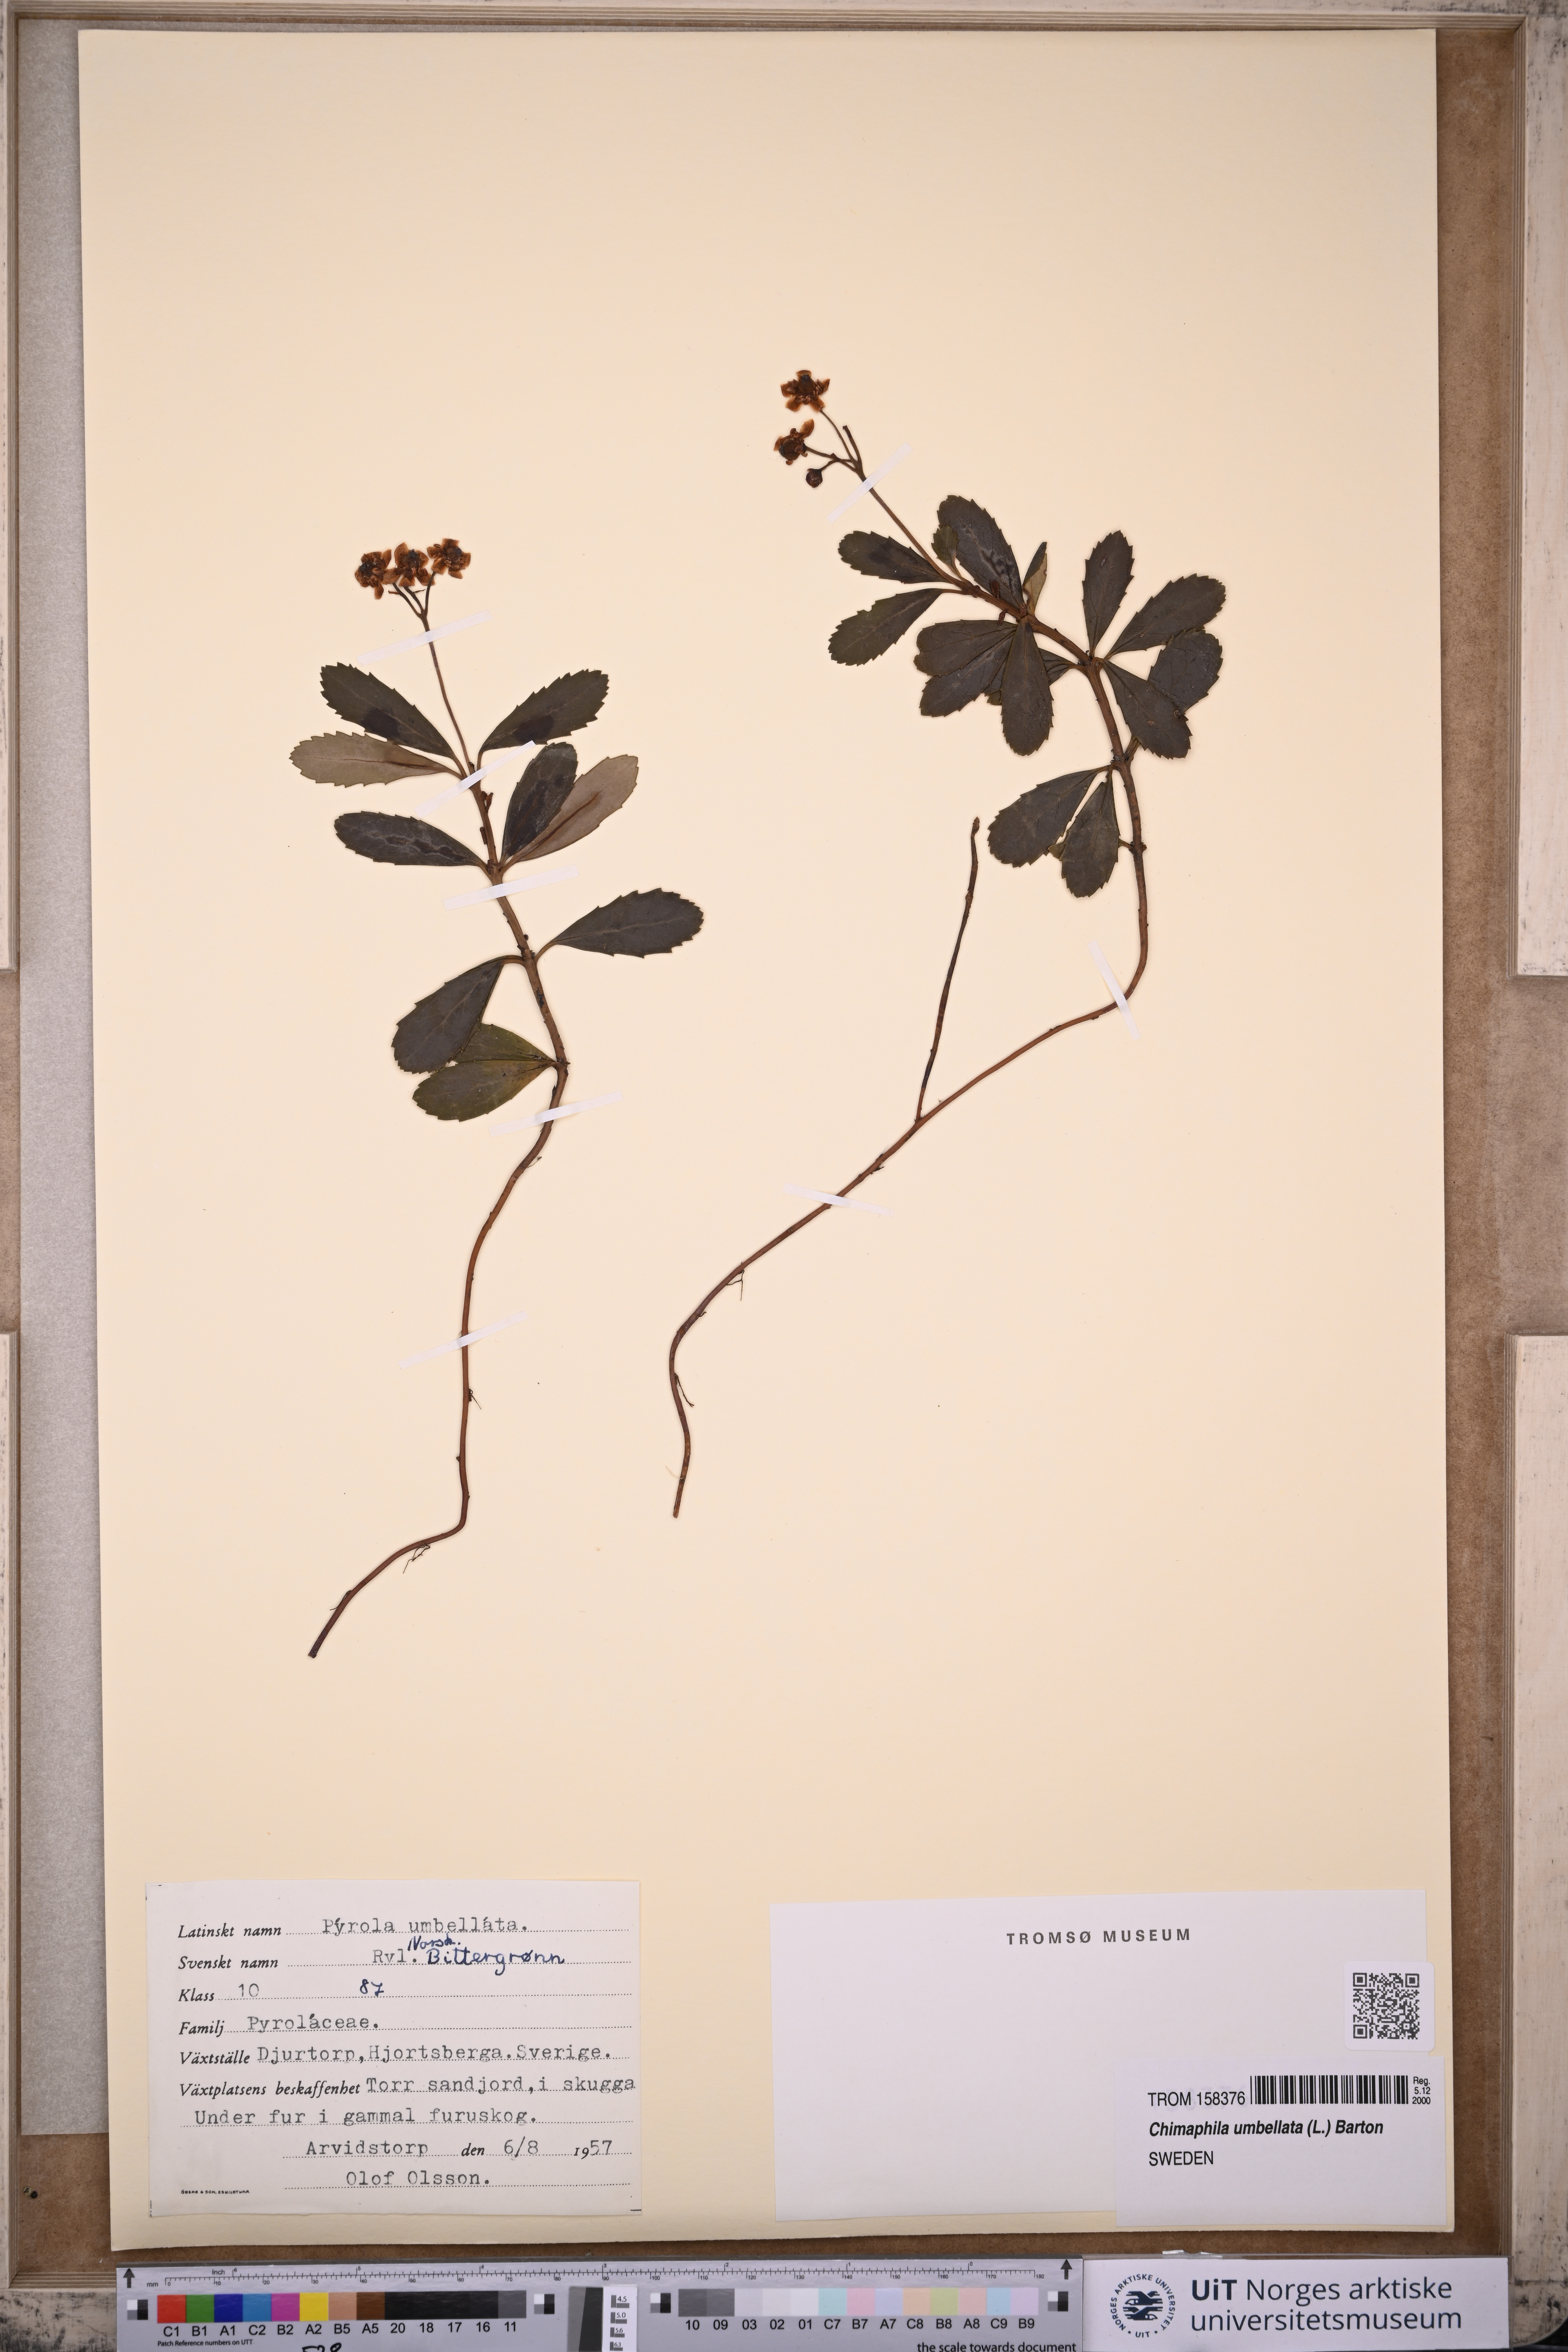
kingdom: Plantae
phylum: Tracheophyta
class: Magnoliopsida
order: Ericales
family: Ericaceae
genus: Chimaphila
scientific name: Chimaphila umbellata
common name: Pipsissewa
